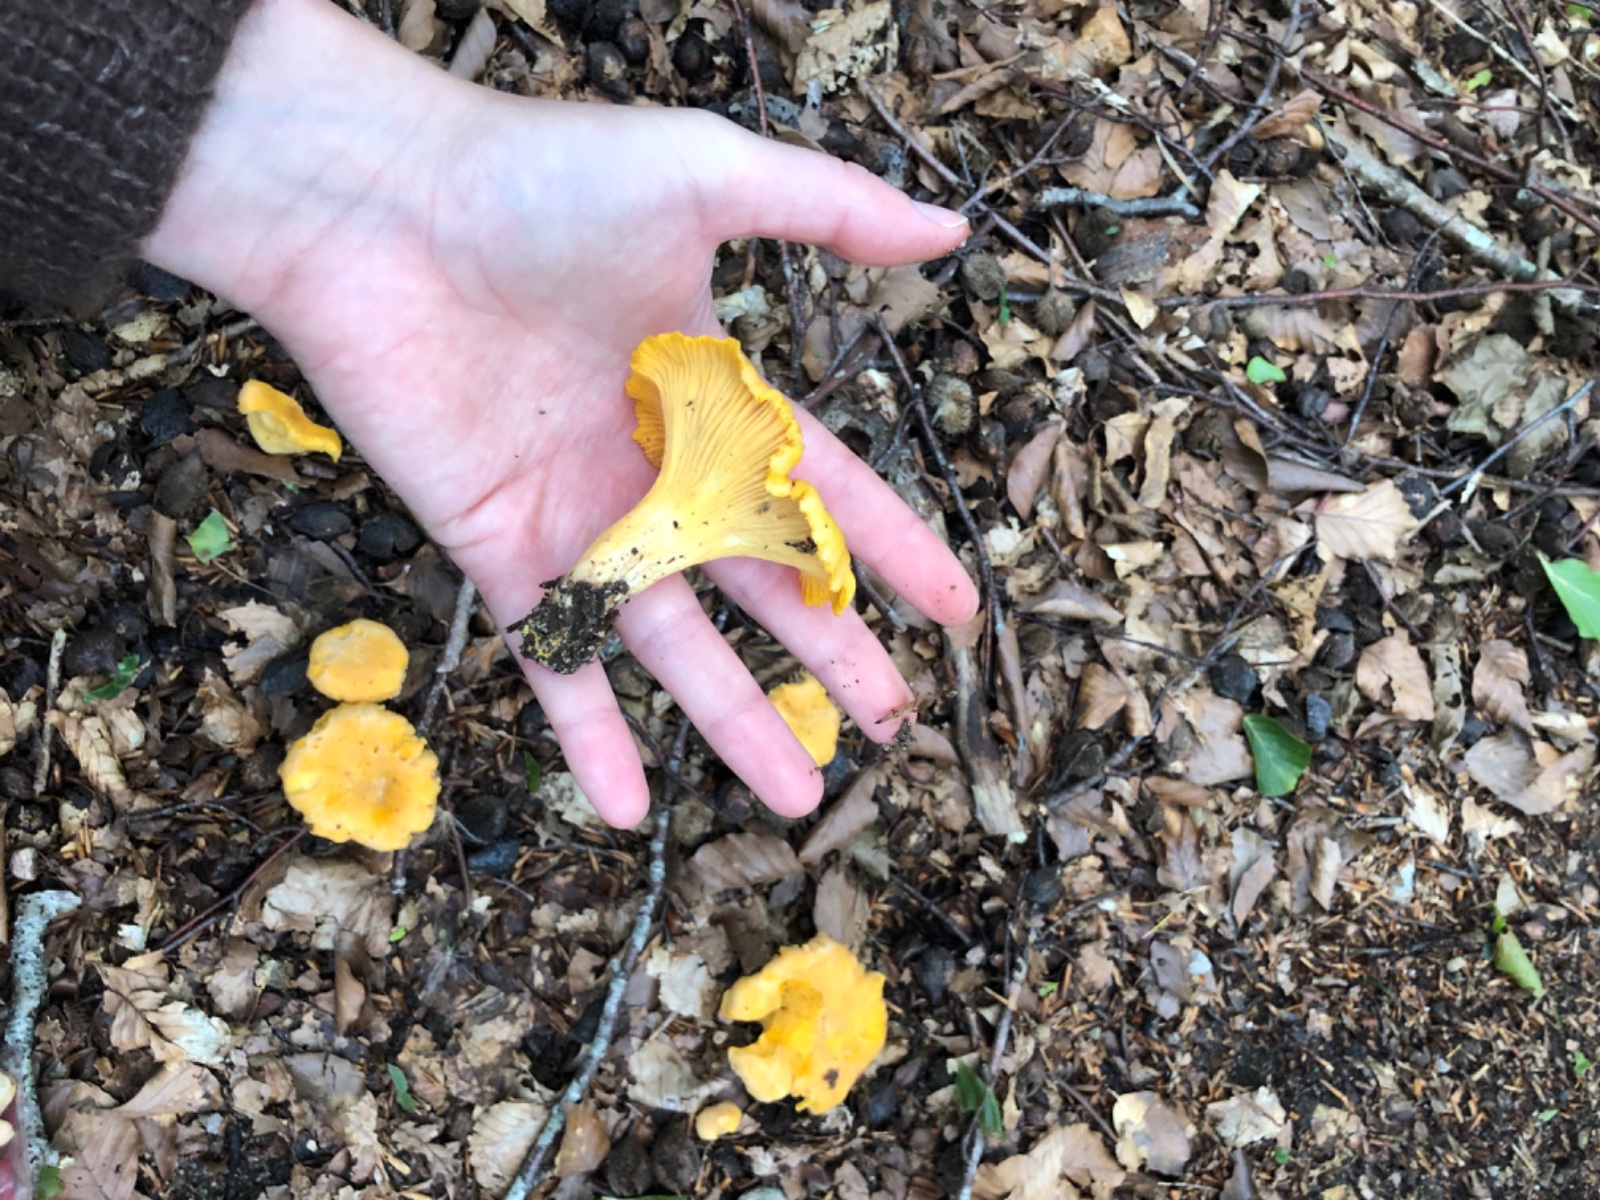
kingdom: Fungi
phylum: Basidiomycota
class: Agaricomycetes
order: Cantharellales
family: Hydnaceae
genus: Cantharellus
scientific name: Cantharellus cibarius
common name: almindelig kantarel
